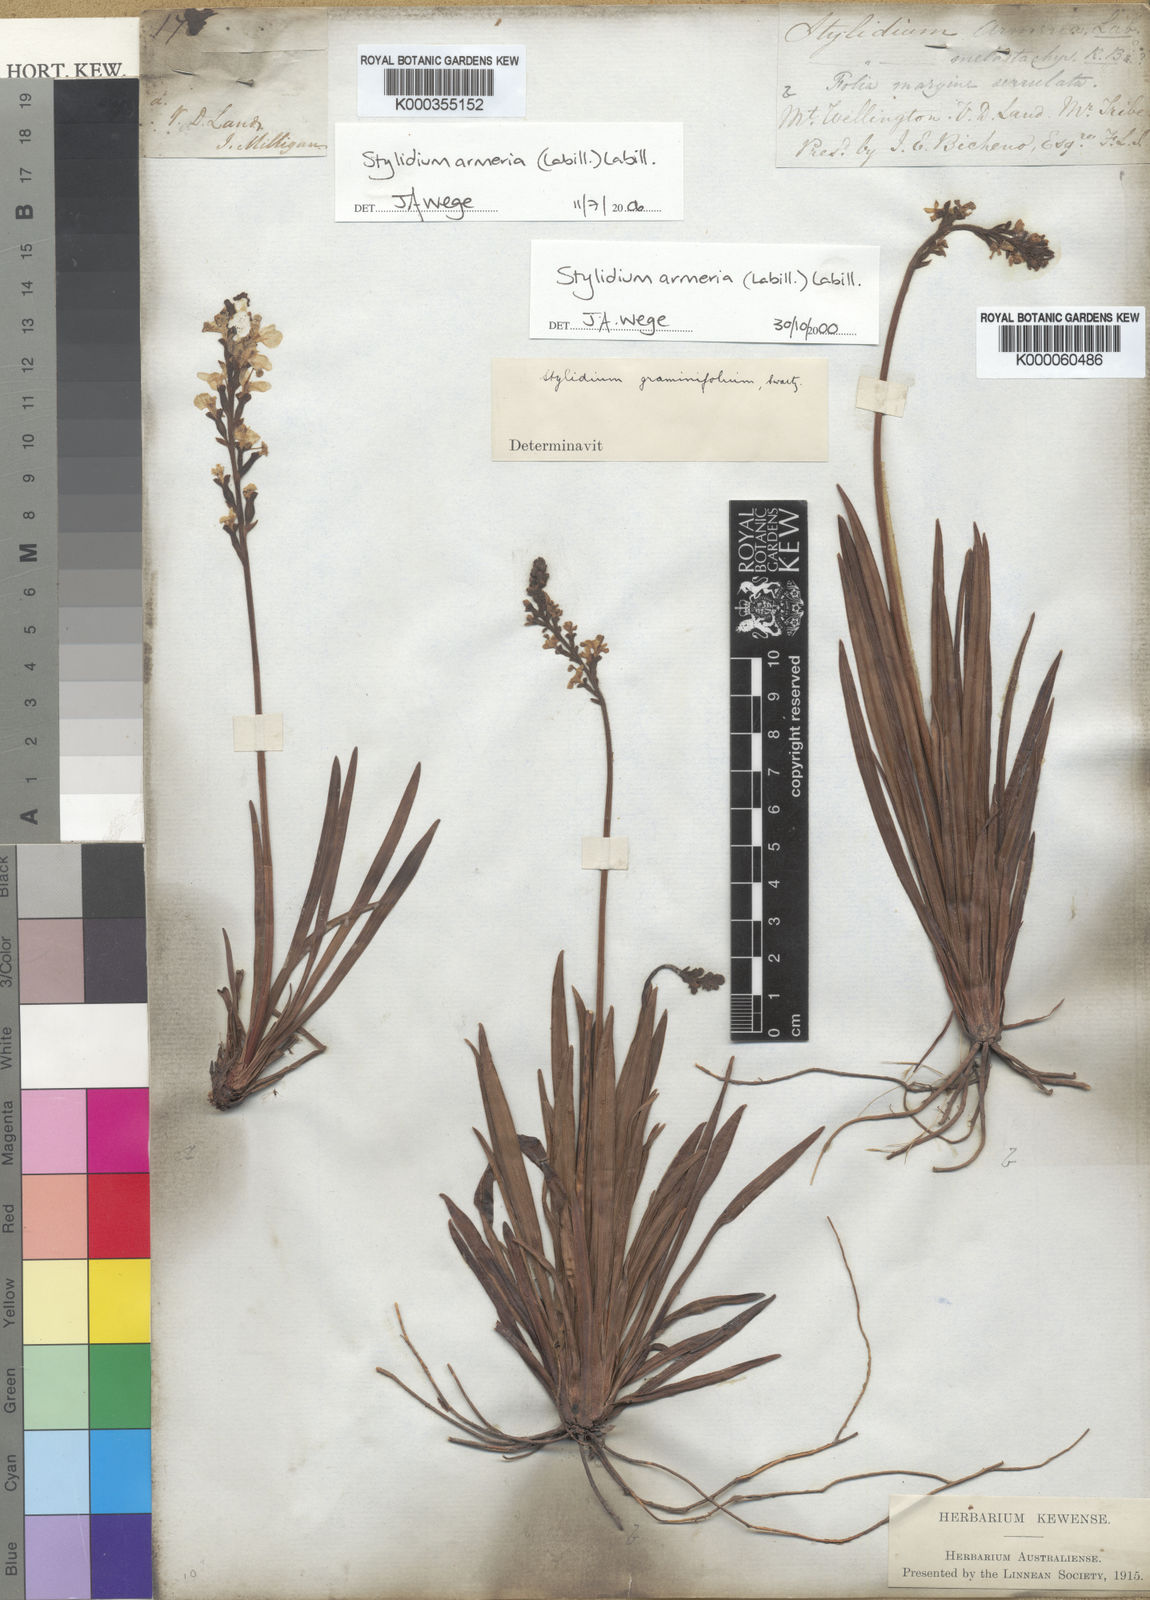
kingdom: Plantae
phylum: Tracheophyta
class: Magnoliopsida
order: Asterales
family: Stylidiaceae
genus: Stylidium
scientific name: Stylidium armeria
